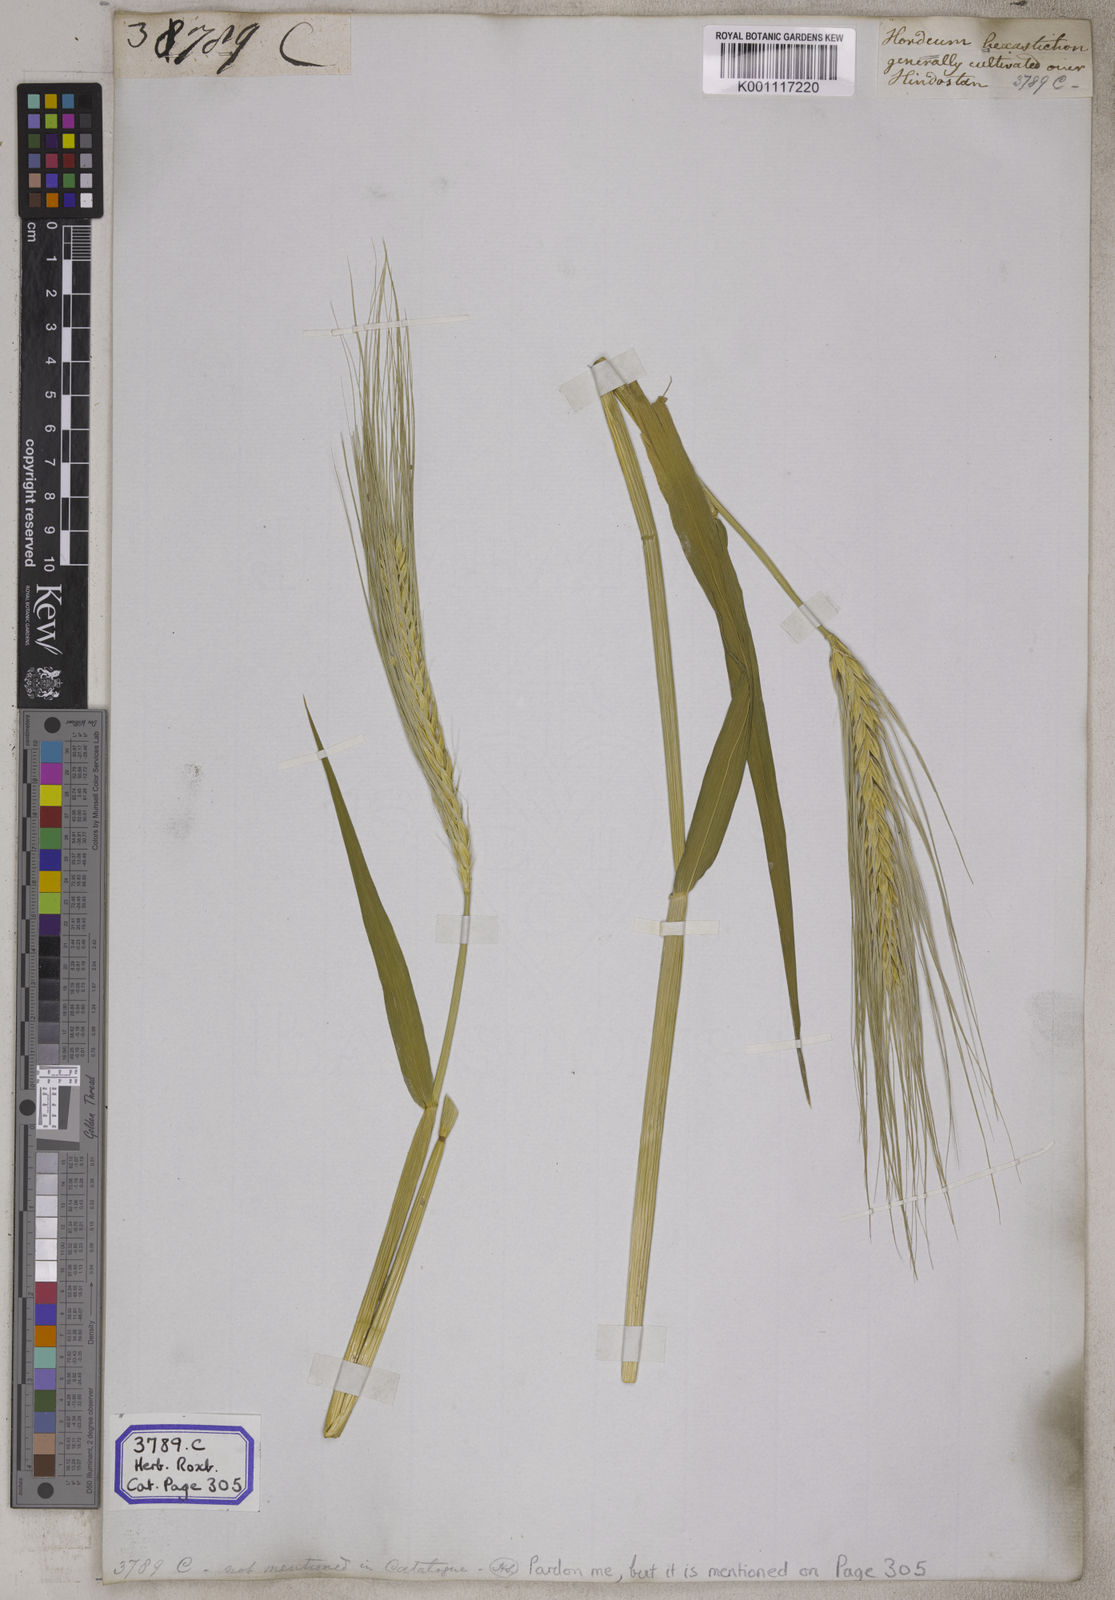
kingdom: Plantae
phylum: Tracheophyta
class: Liliopsida
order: Poales
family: Poaceae
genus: Hordeum
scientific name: Hordeum vulgare
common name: Common barley
